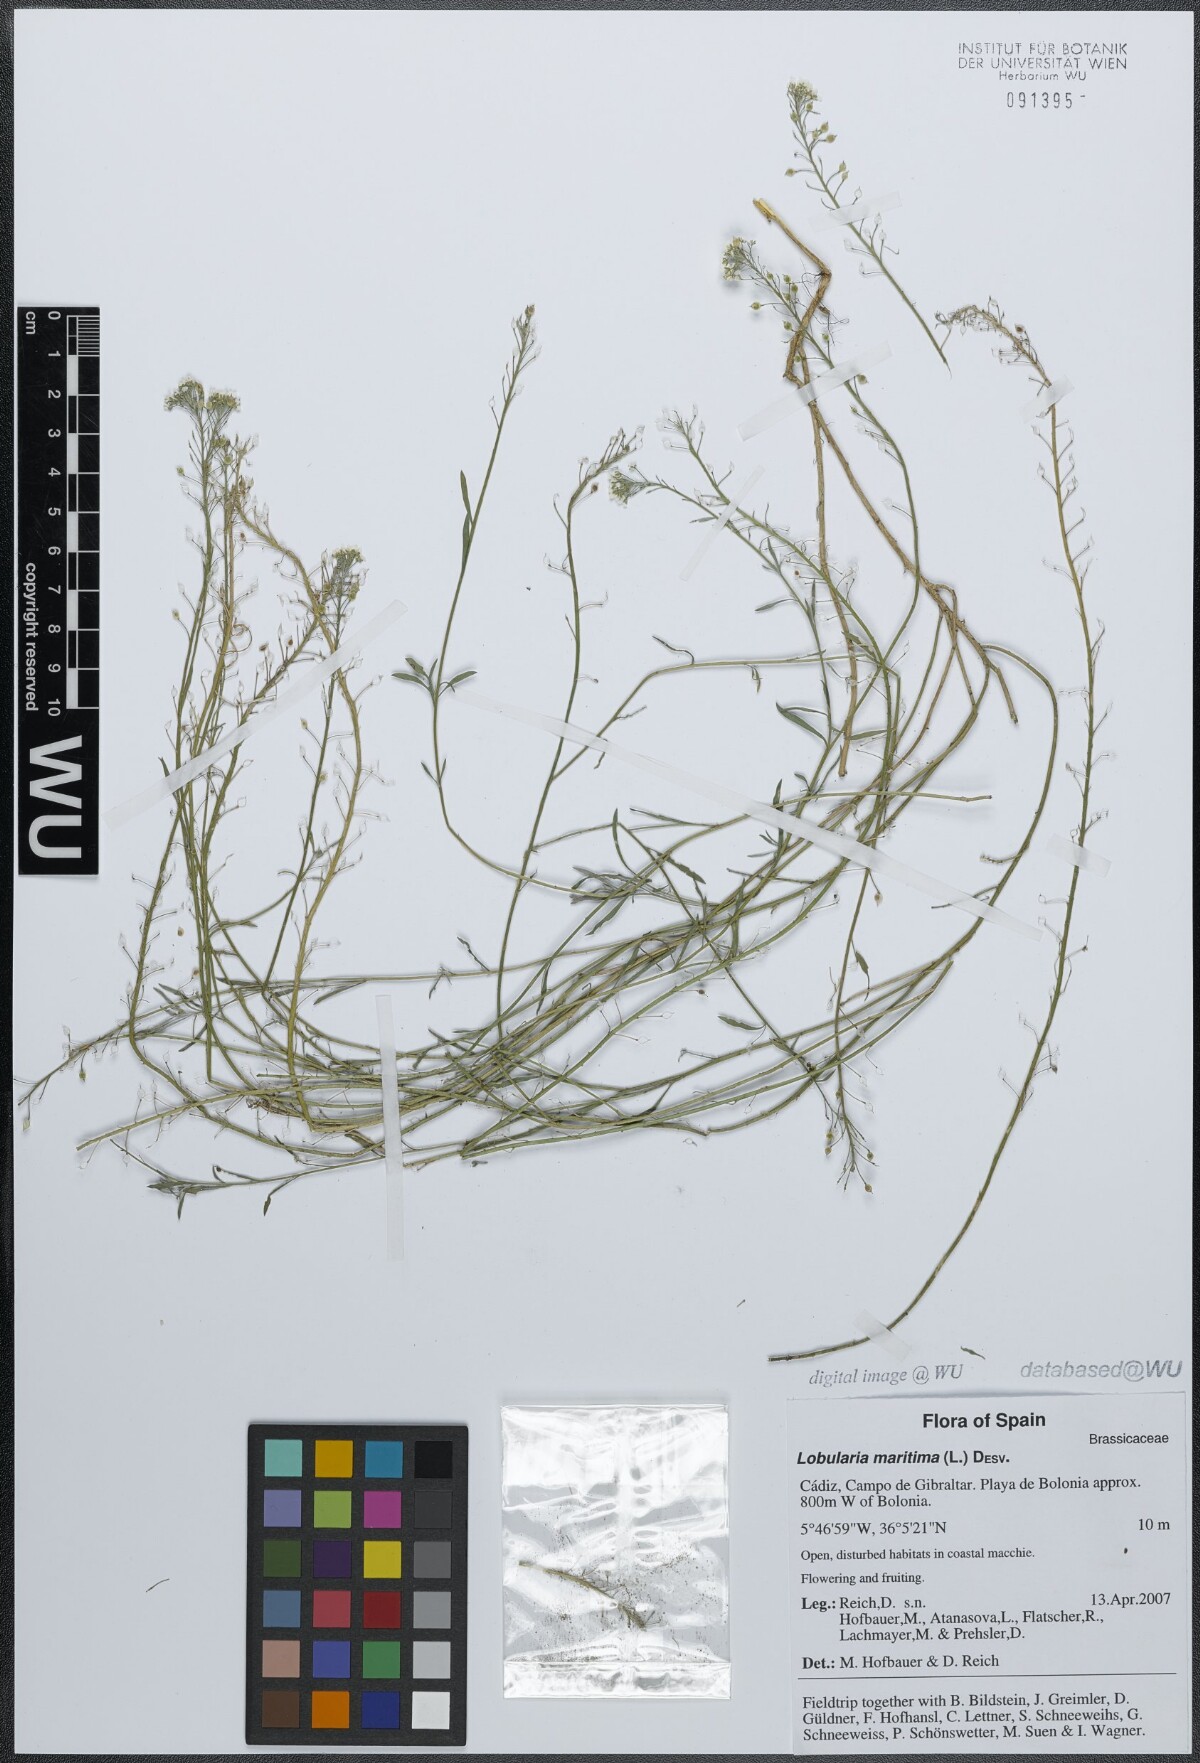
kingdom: Plantae
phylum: Tracheophyta
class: Magnoliopsida
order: Brassicales
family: Brassicaceae
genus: Lobularia
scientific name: Lobularia maritima
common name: Sweet alison
